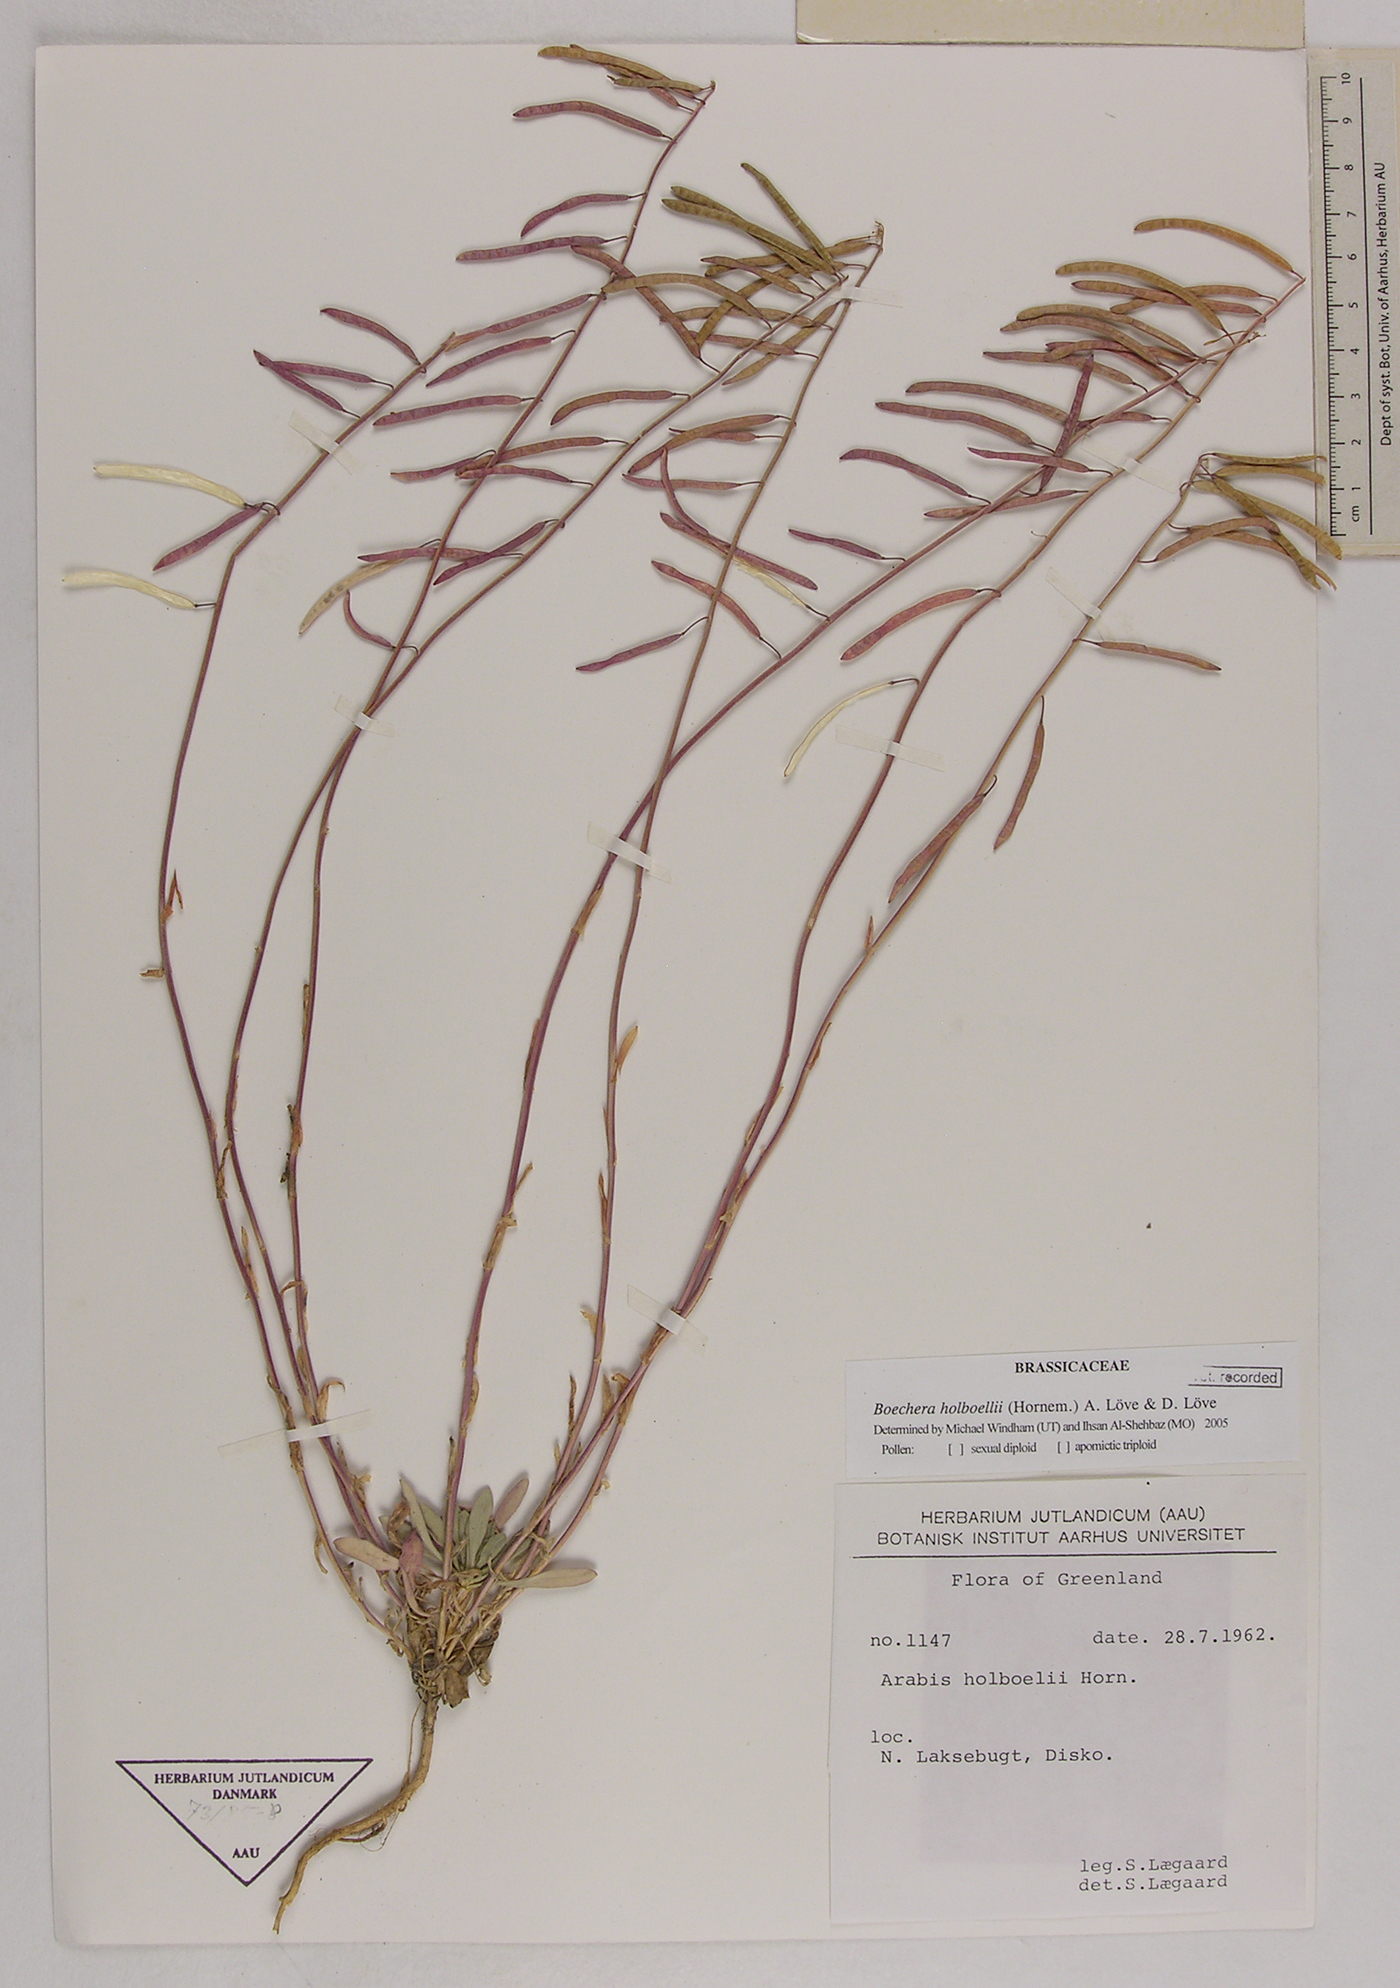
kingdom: Plantae
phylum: Tracheophyta
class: Magnoliopsida
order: Brassicales
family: Brassicaceae
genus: Boechera
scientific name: Boechera holboellii
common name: Holboell's rockcress
